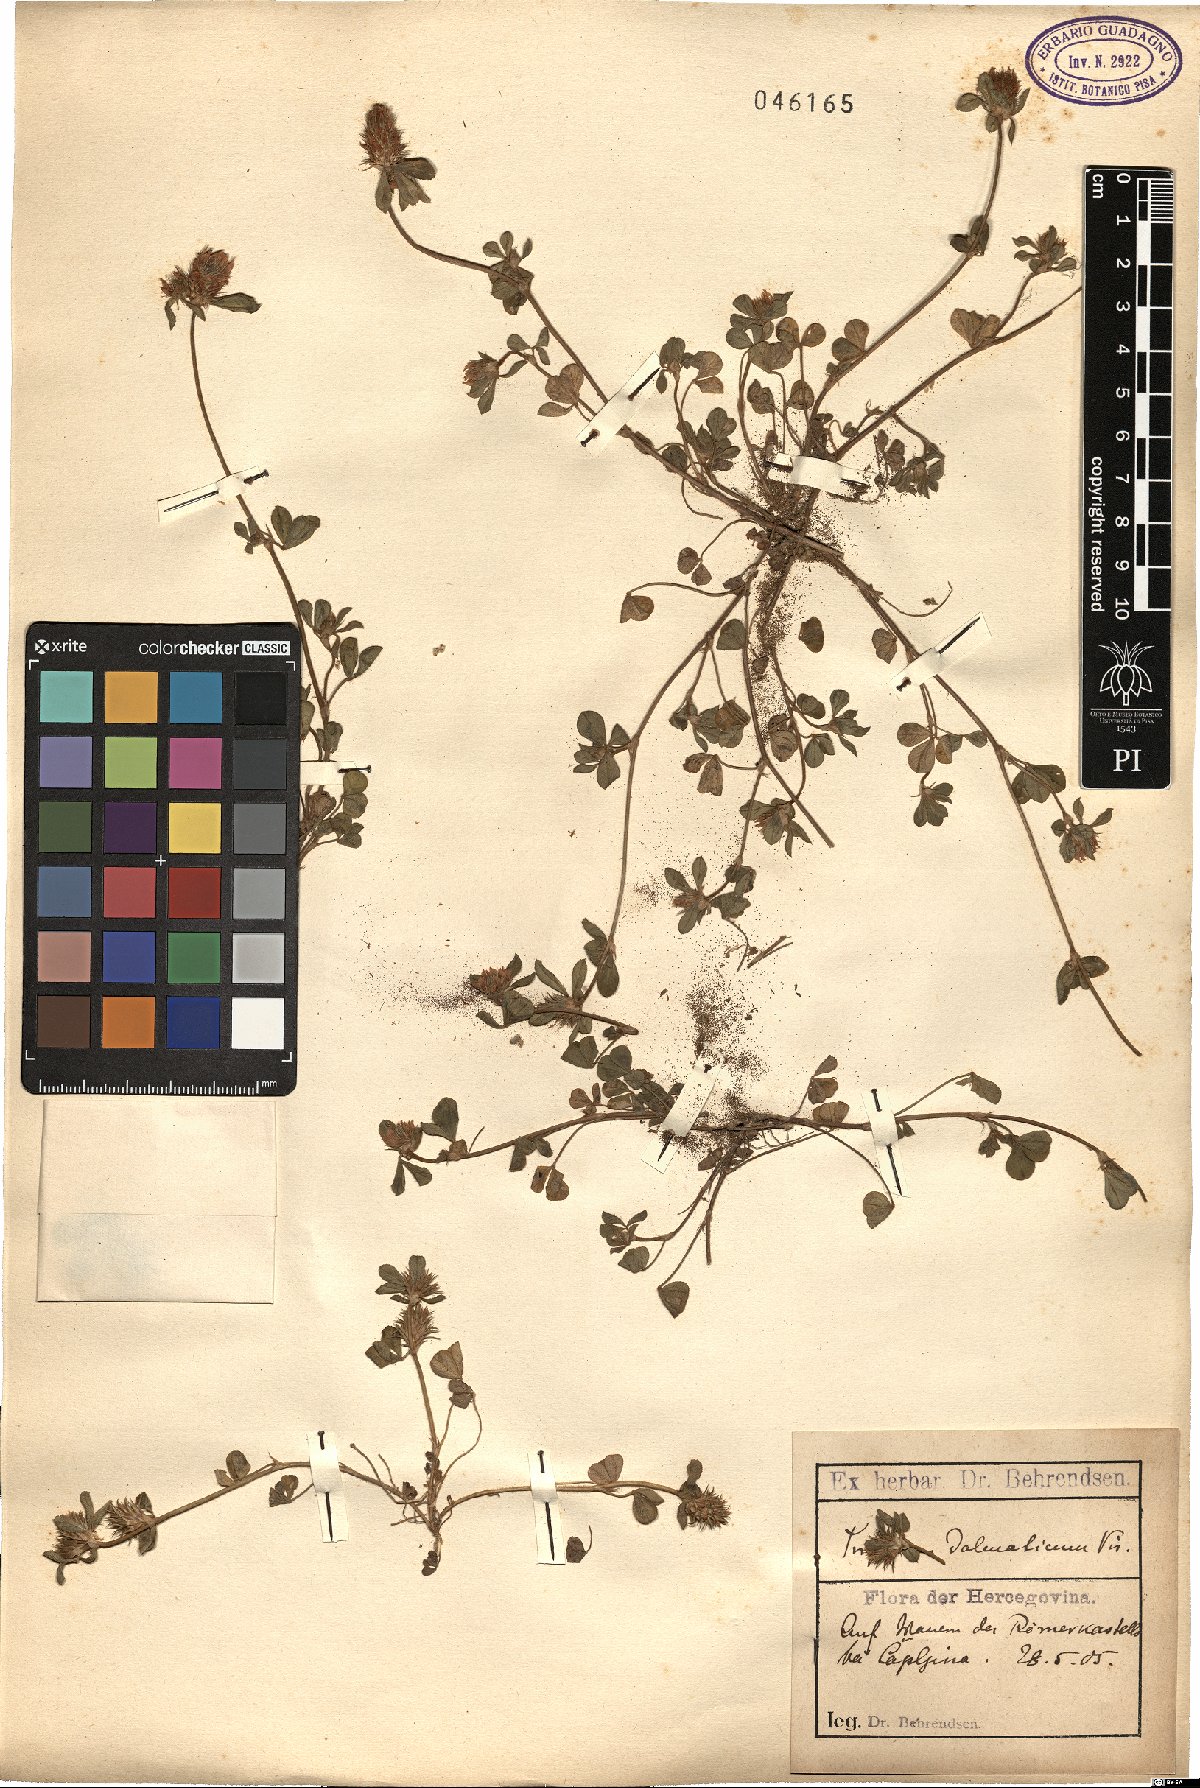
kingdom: Plantae
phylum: Tracheophyta
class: Magnoliopsida
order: Fabales
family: Fabaceae
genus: Trifolium
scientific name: Trifolium dalmaticum
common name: Dalmatian clover
